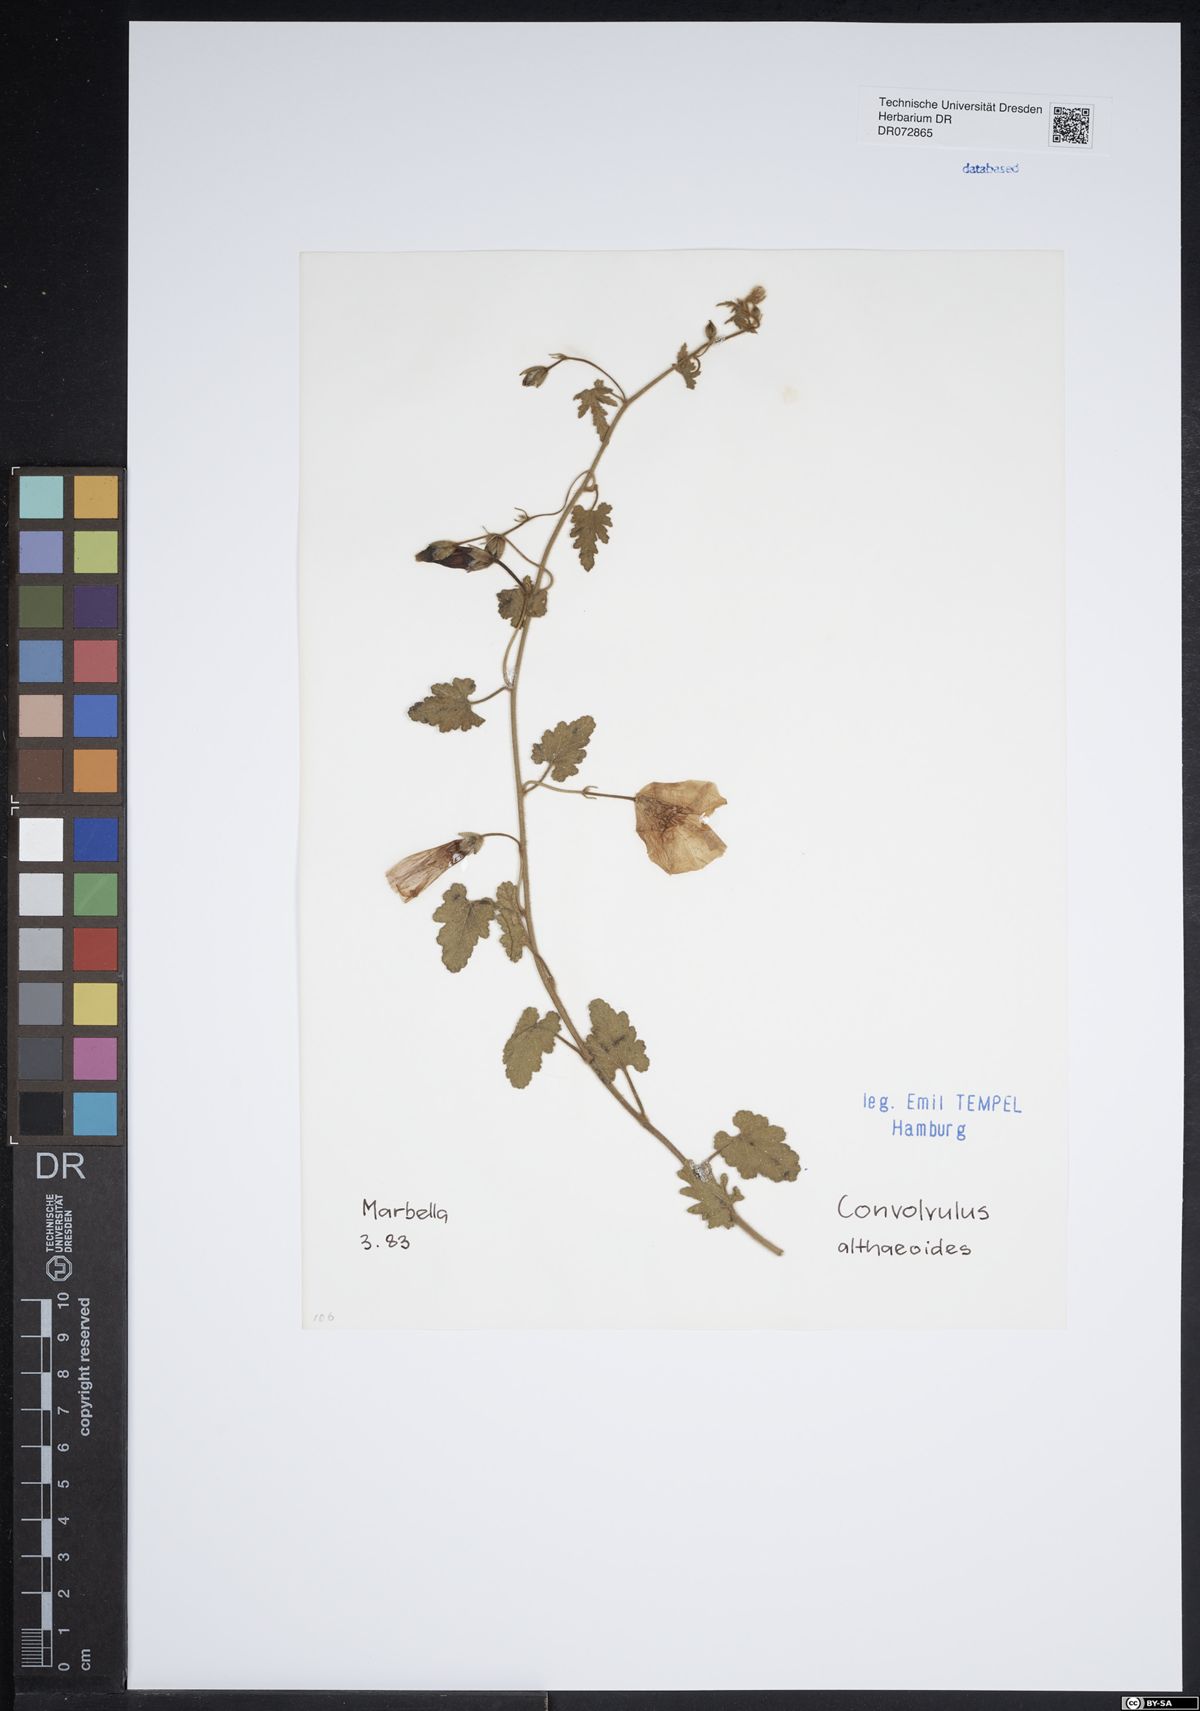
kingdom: Plantae
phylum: Tracheophyta
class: Magnoliopsida
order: Solanales
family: Convolvulaceae
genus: Convolvulus
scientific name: Convolvulus althaeoides
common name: Mallow bindweed
